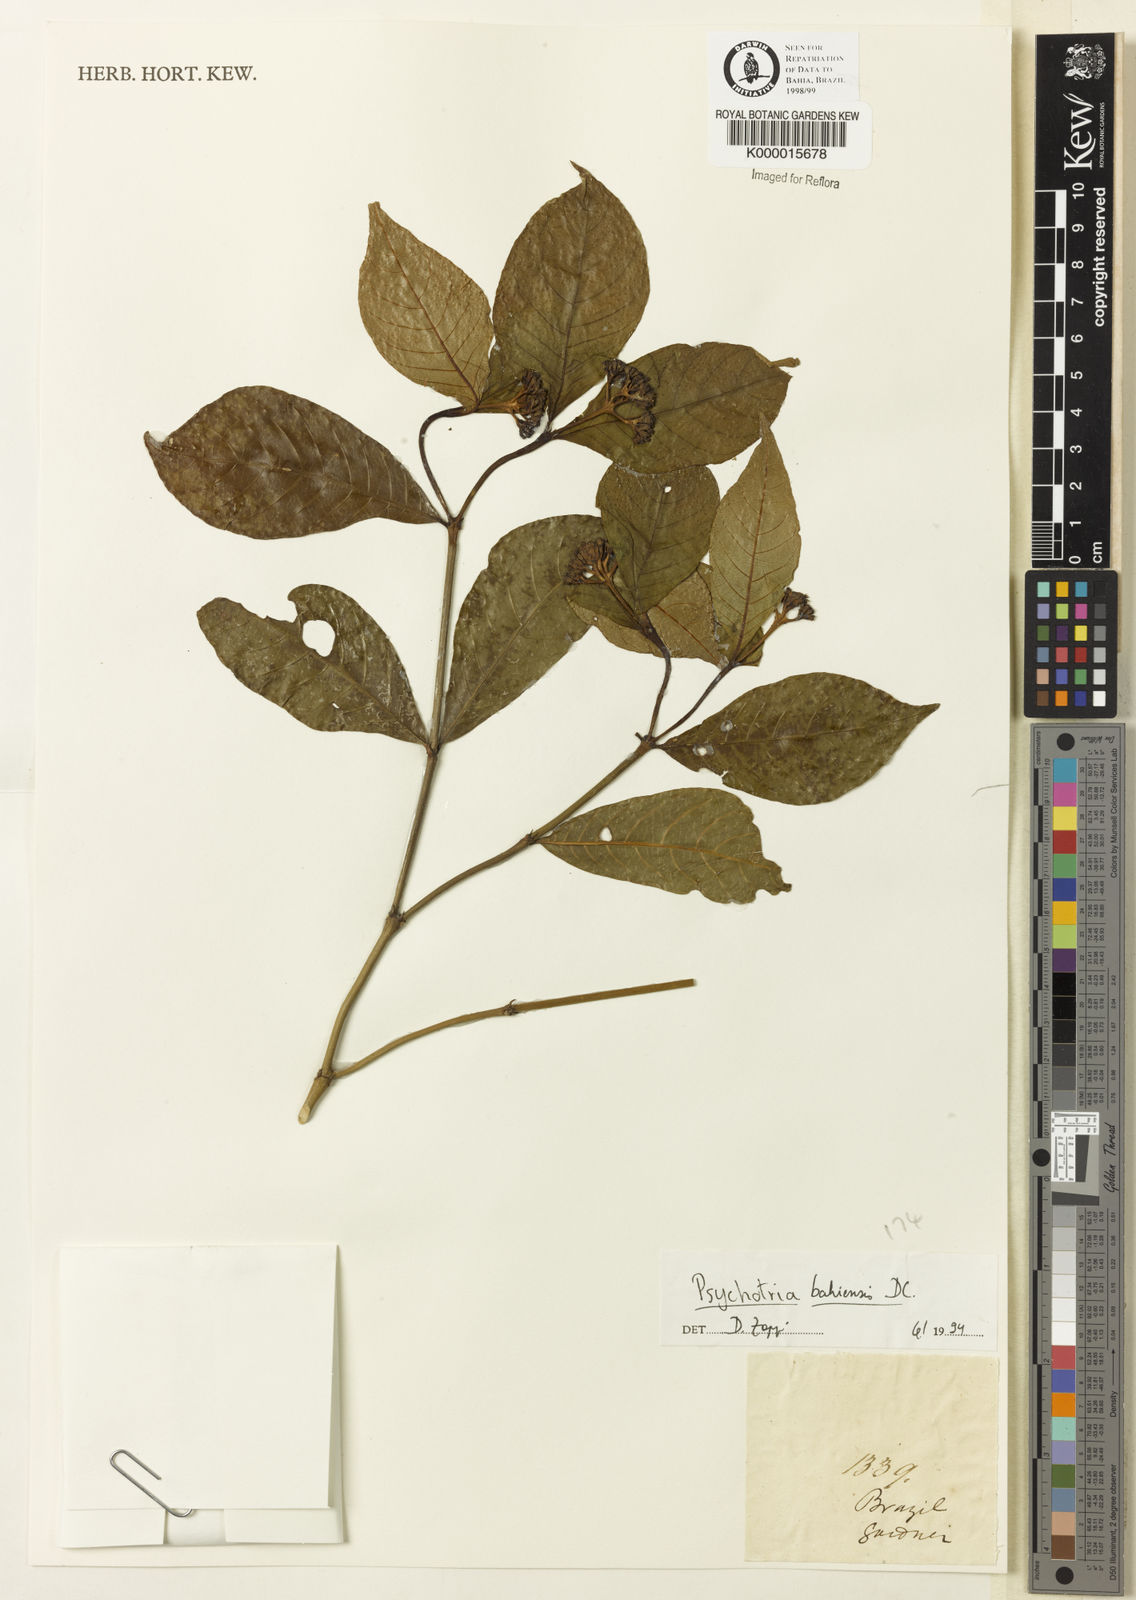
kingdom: Plantae
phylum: Tracheophyta
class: Magnoliopsida
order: Gentianales
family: Rubiaceae
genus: Psychotria
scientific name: Psychotria bahiensis
